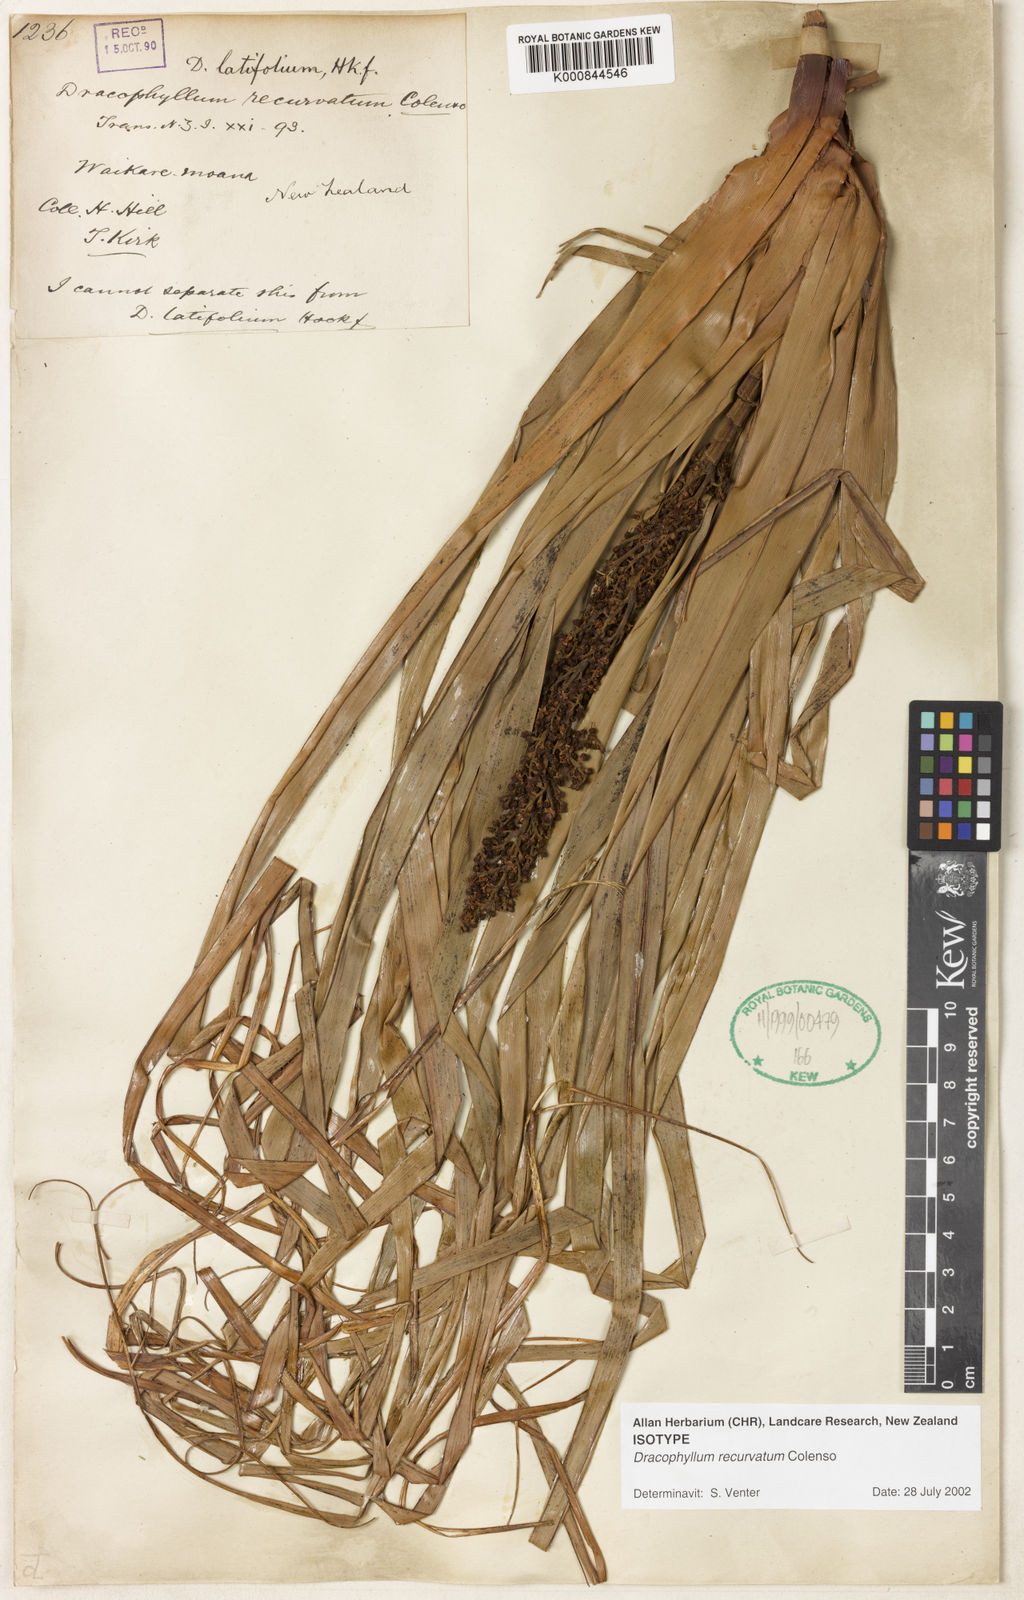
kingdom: Plantae
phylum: Tracheophyta
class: Magnoliopsida
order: Ericales
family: Ericaceae
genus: Dracophyllum
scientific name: Dracophyllum latifolium
